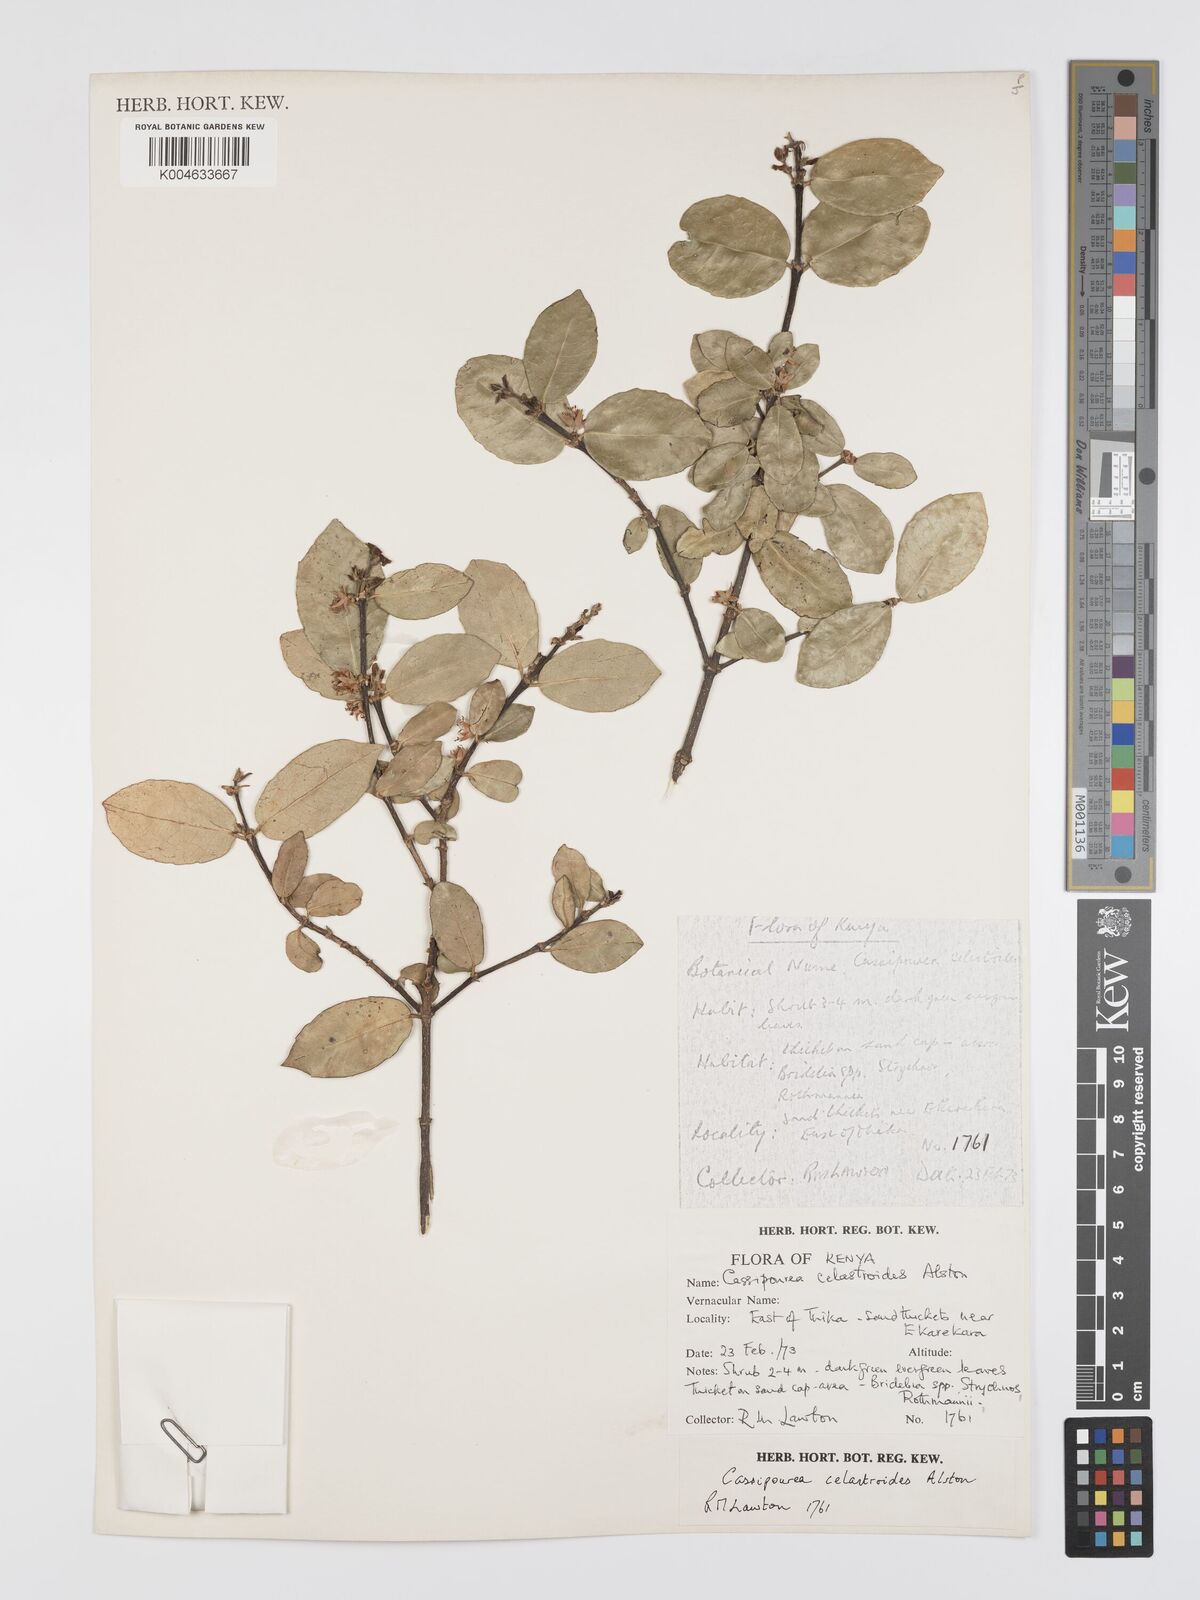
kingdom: Plantae
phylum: Tracheophyta
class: Magnoliopsida
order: Malpighiales
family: Rhizophoraceae
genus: Cassipourea
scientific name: Cassipourea celastroides
